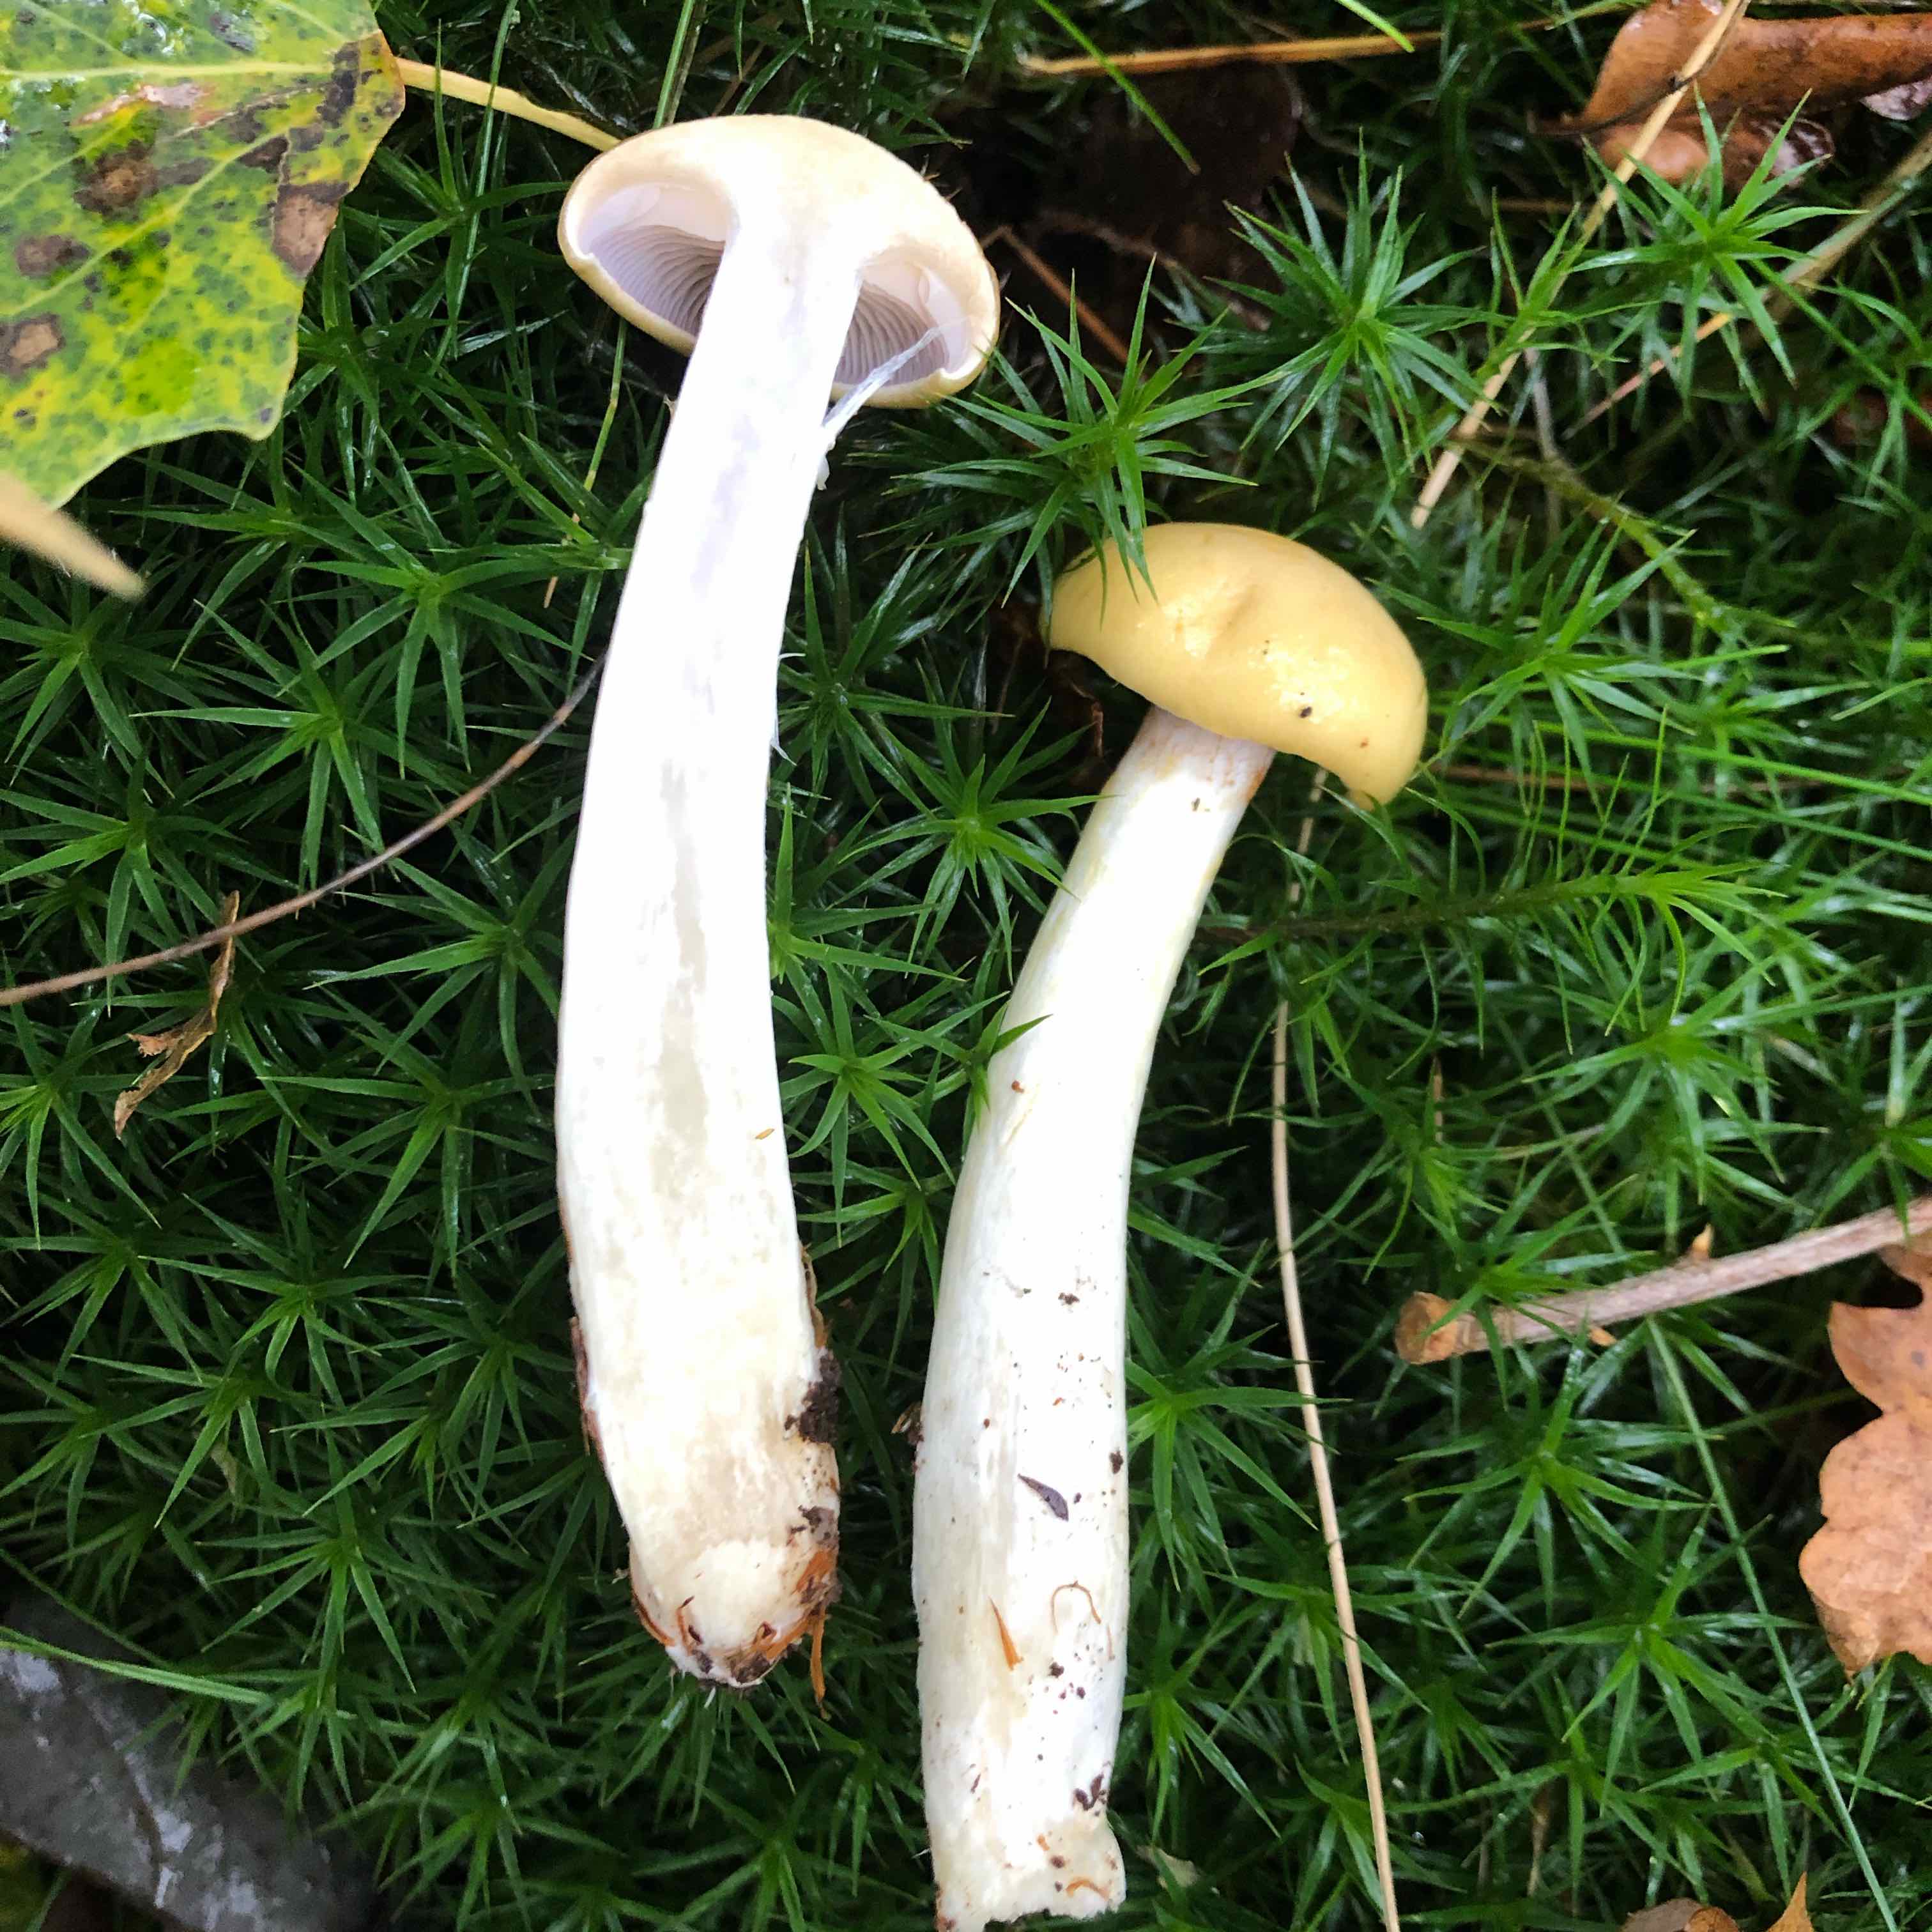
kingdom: Fungi
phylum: Basidiomycota
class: Agaricomycetes
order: Agaricales
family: Cortinariaceae
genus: Cortinarius
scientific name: Cortinarius delibutus
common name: gul slørhat
